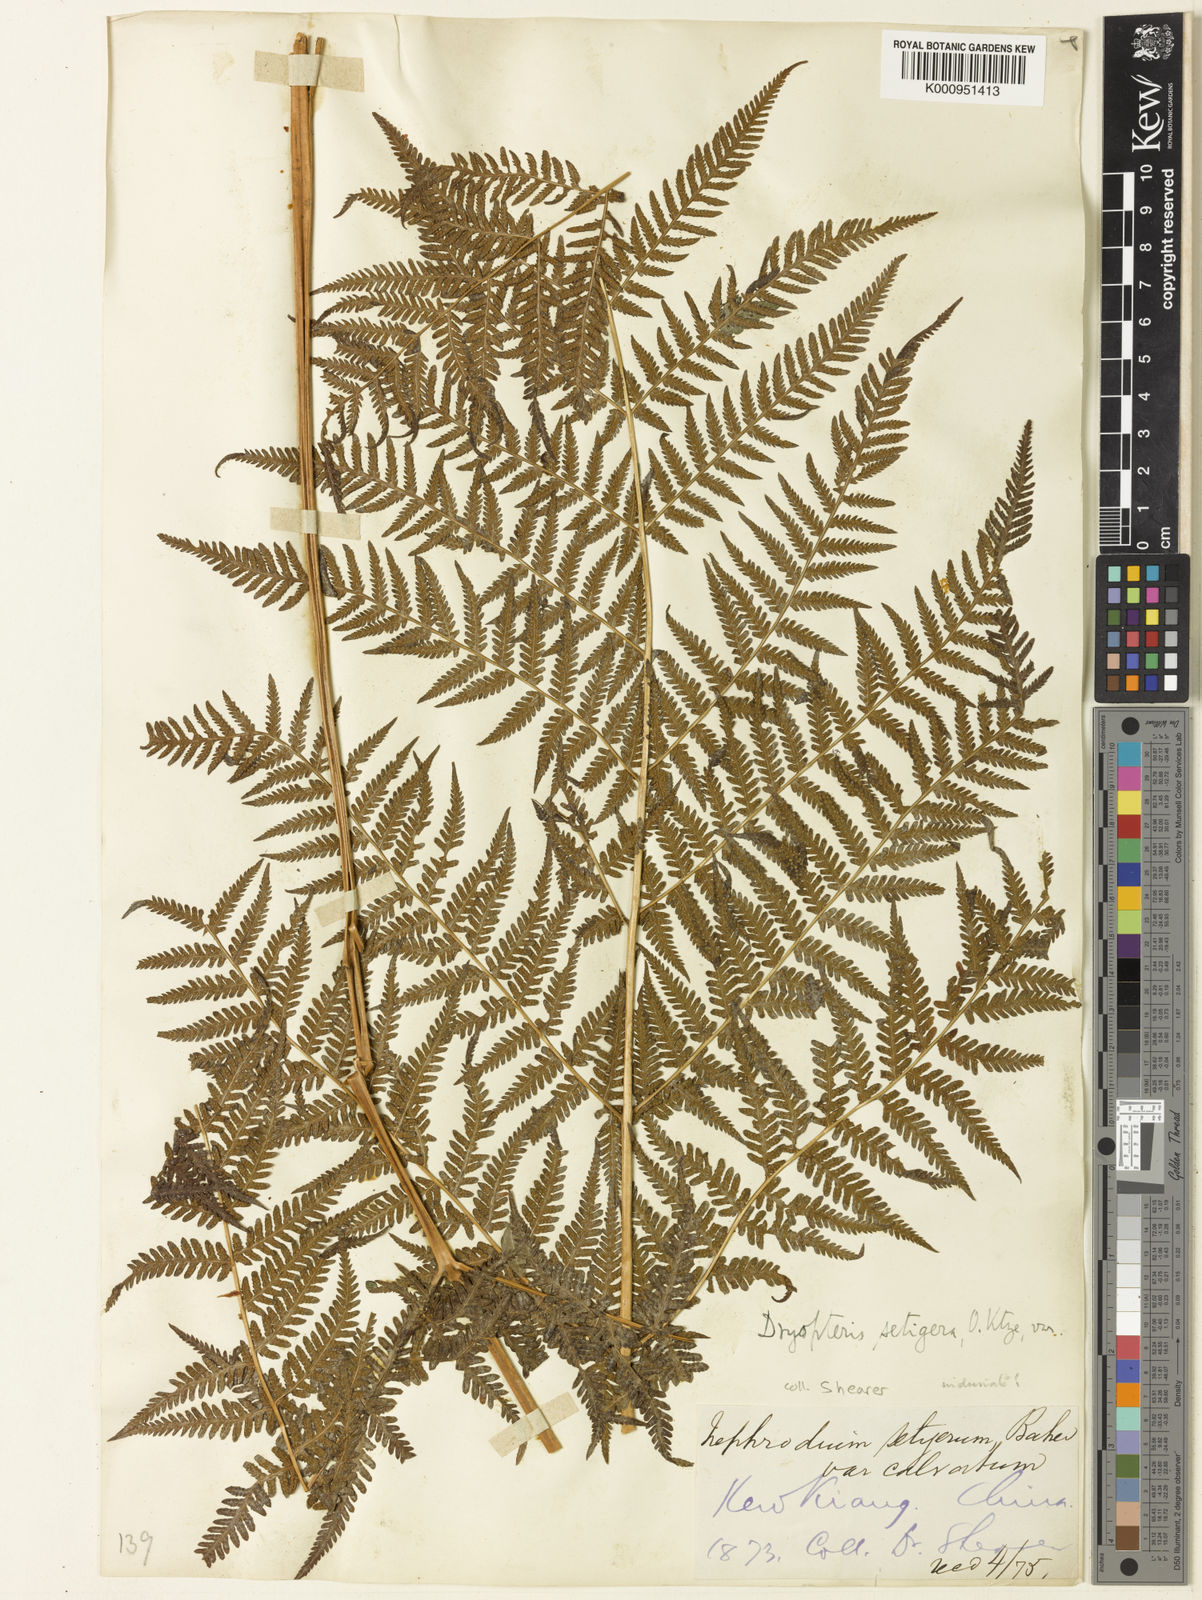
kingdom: Plantae
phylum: Tracheophyta
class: Polypodiopsida
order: Polypodiales
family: Thelypteridaceae
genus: Macrothelypteris
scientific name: Macrothelypteris oligophlebia
